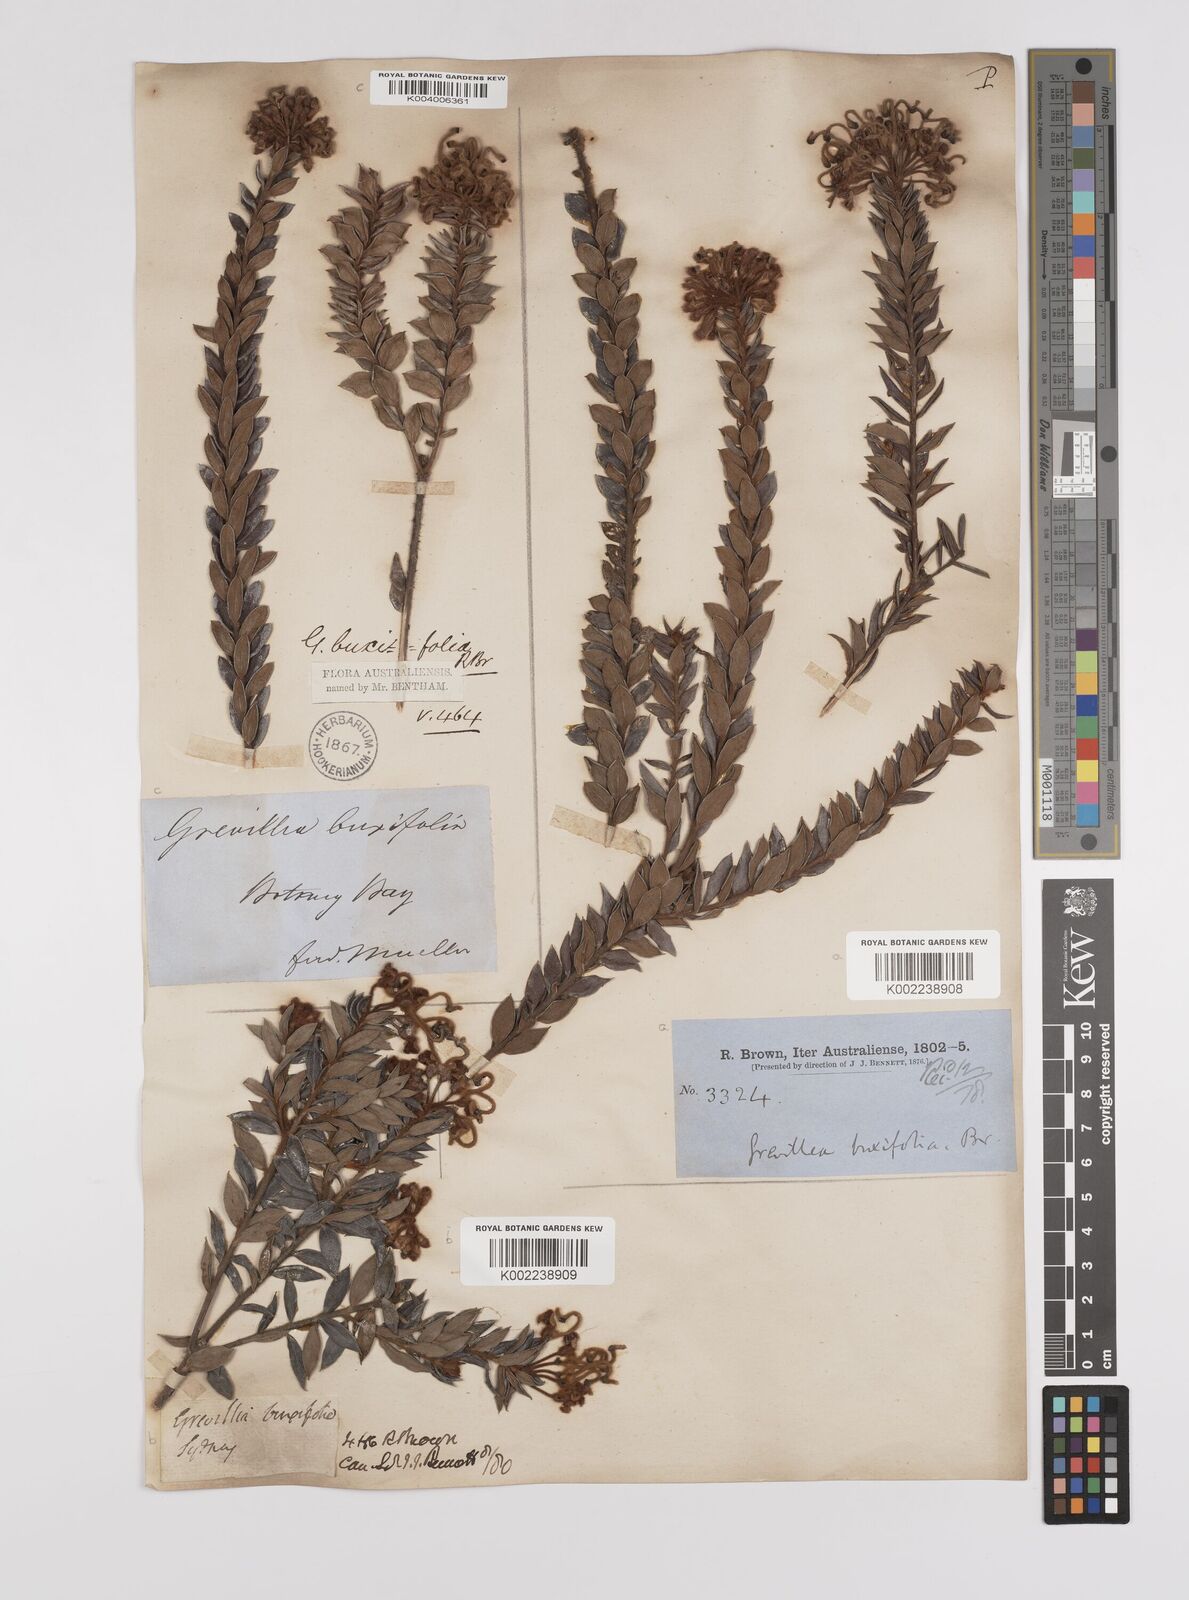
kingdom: Plantae
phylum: Tracheophyta
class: Magnoliopsida
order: Proteales
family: Proteaceae
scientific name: Proteaceae
